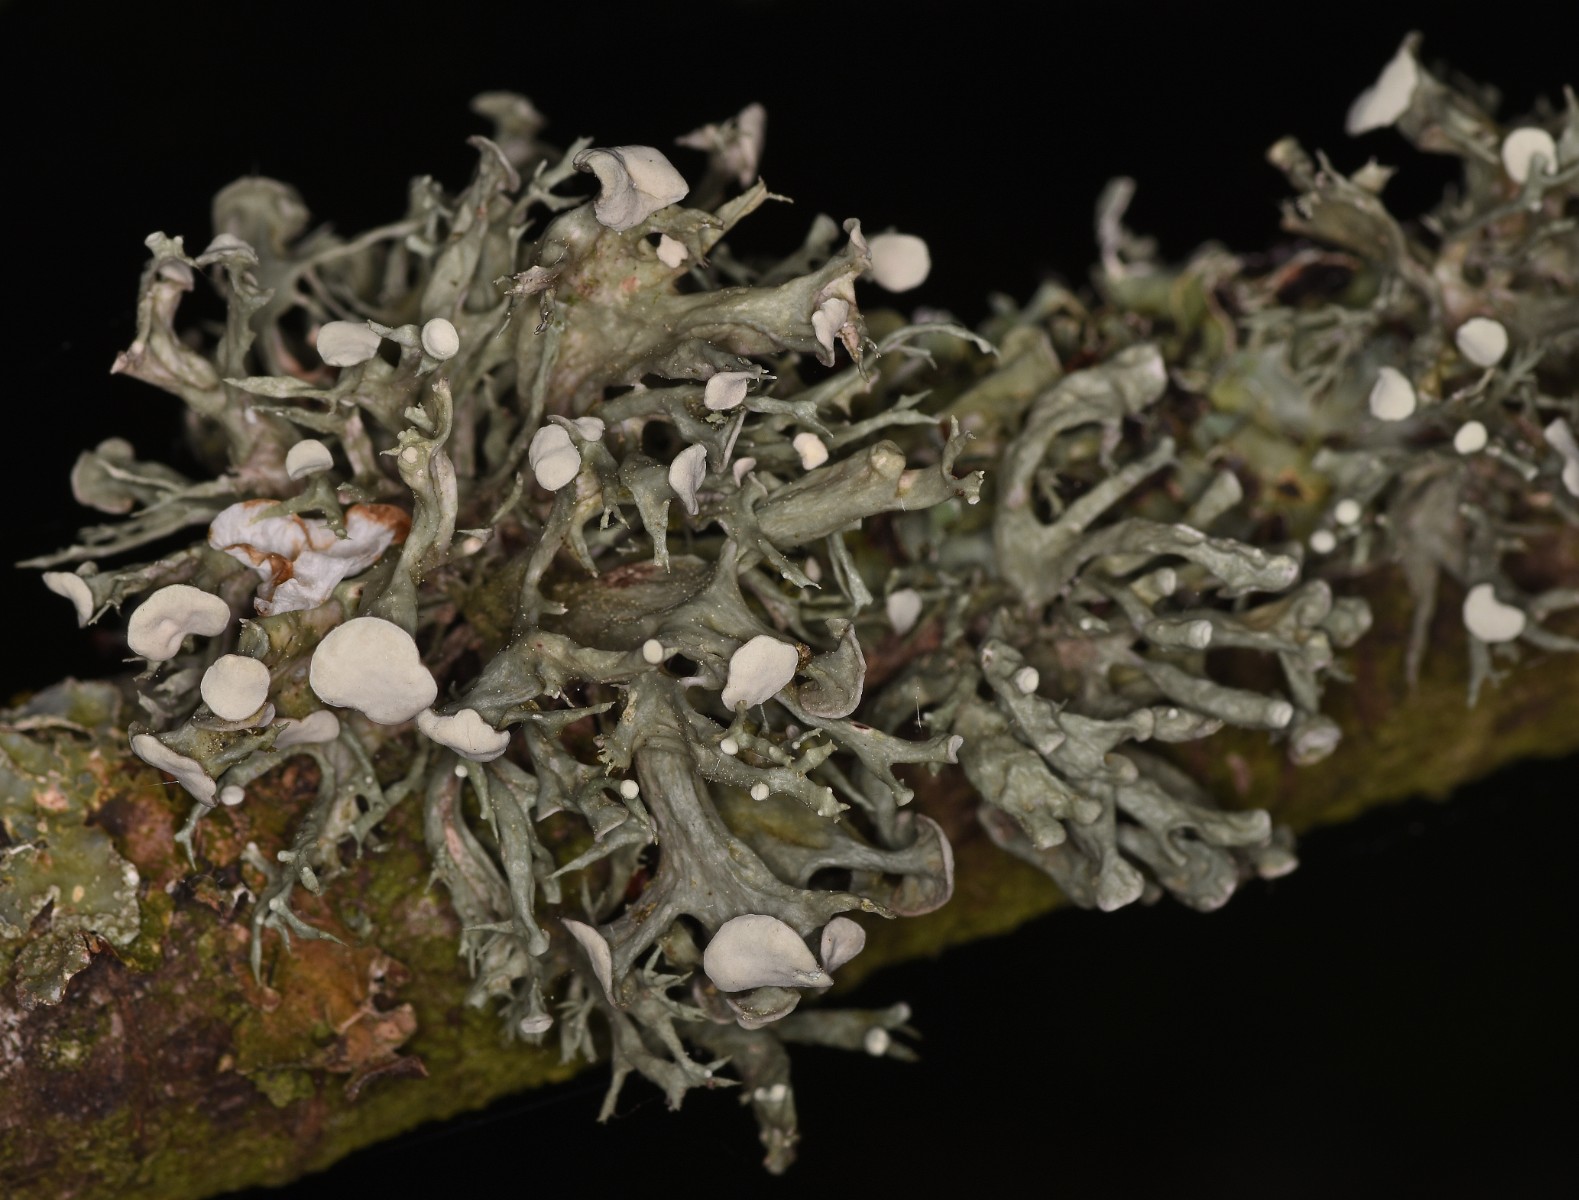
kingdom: Fungi
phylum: Ascomycota
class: Lecanoromycetes
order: Lecanorales
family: Ramalinaceae
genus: Ramalina
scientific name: Ramalina fastigiata
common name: tue-grenlav
